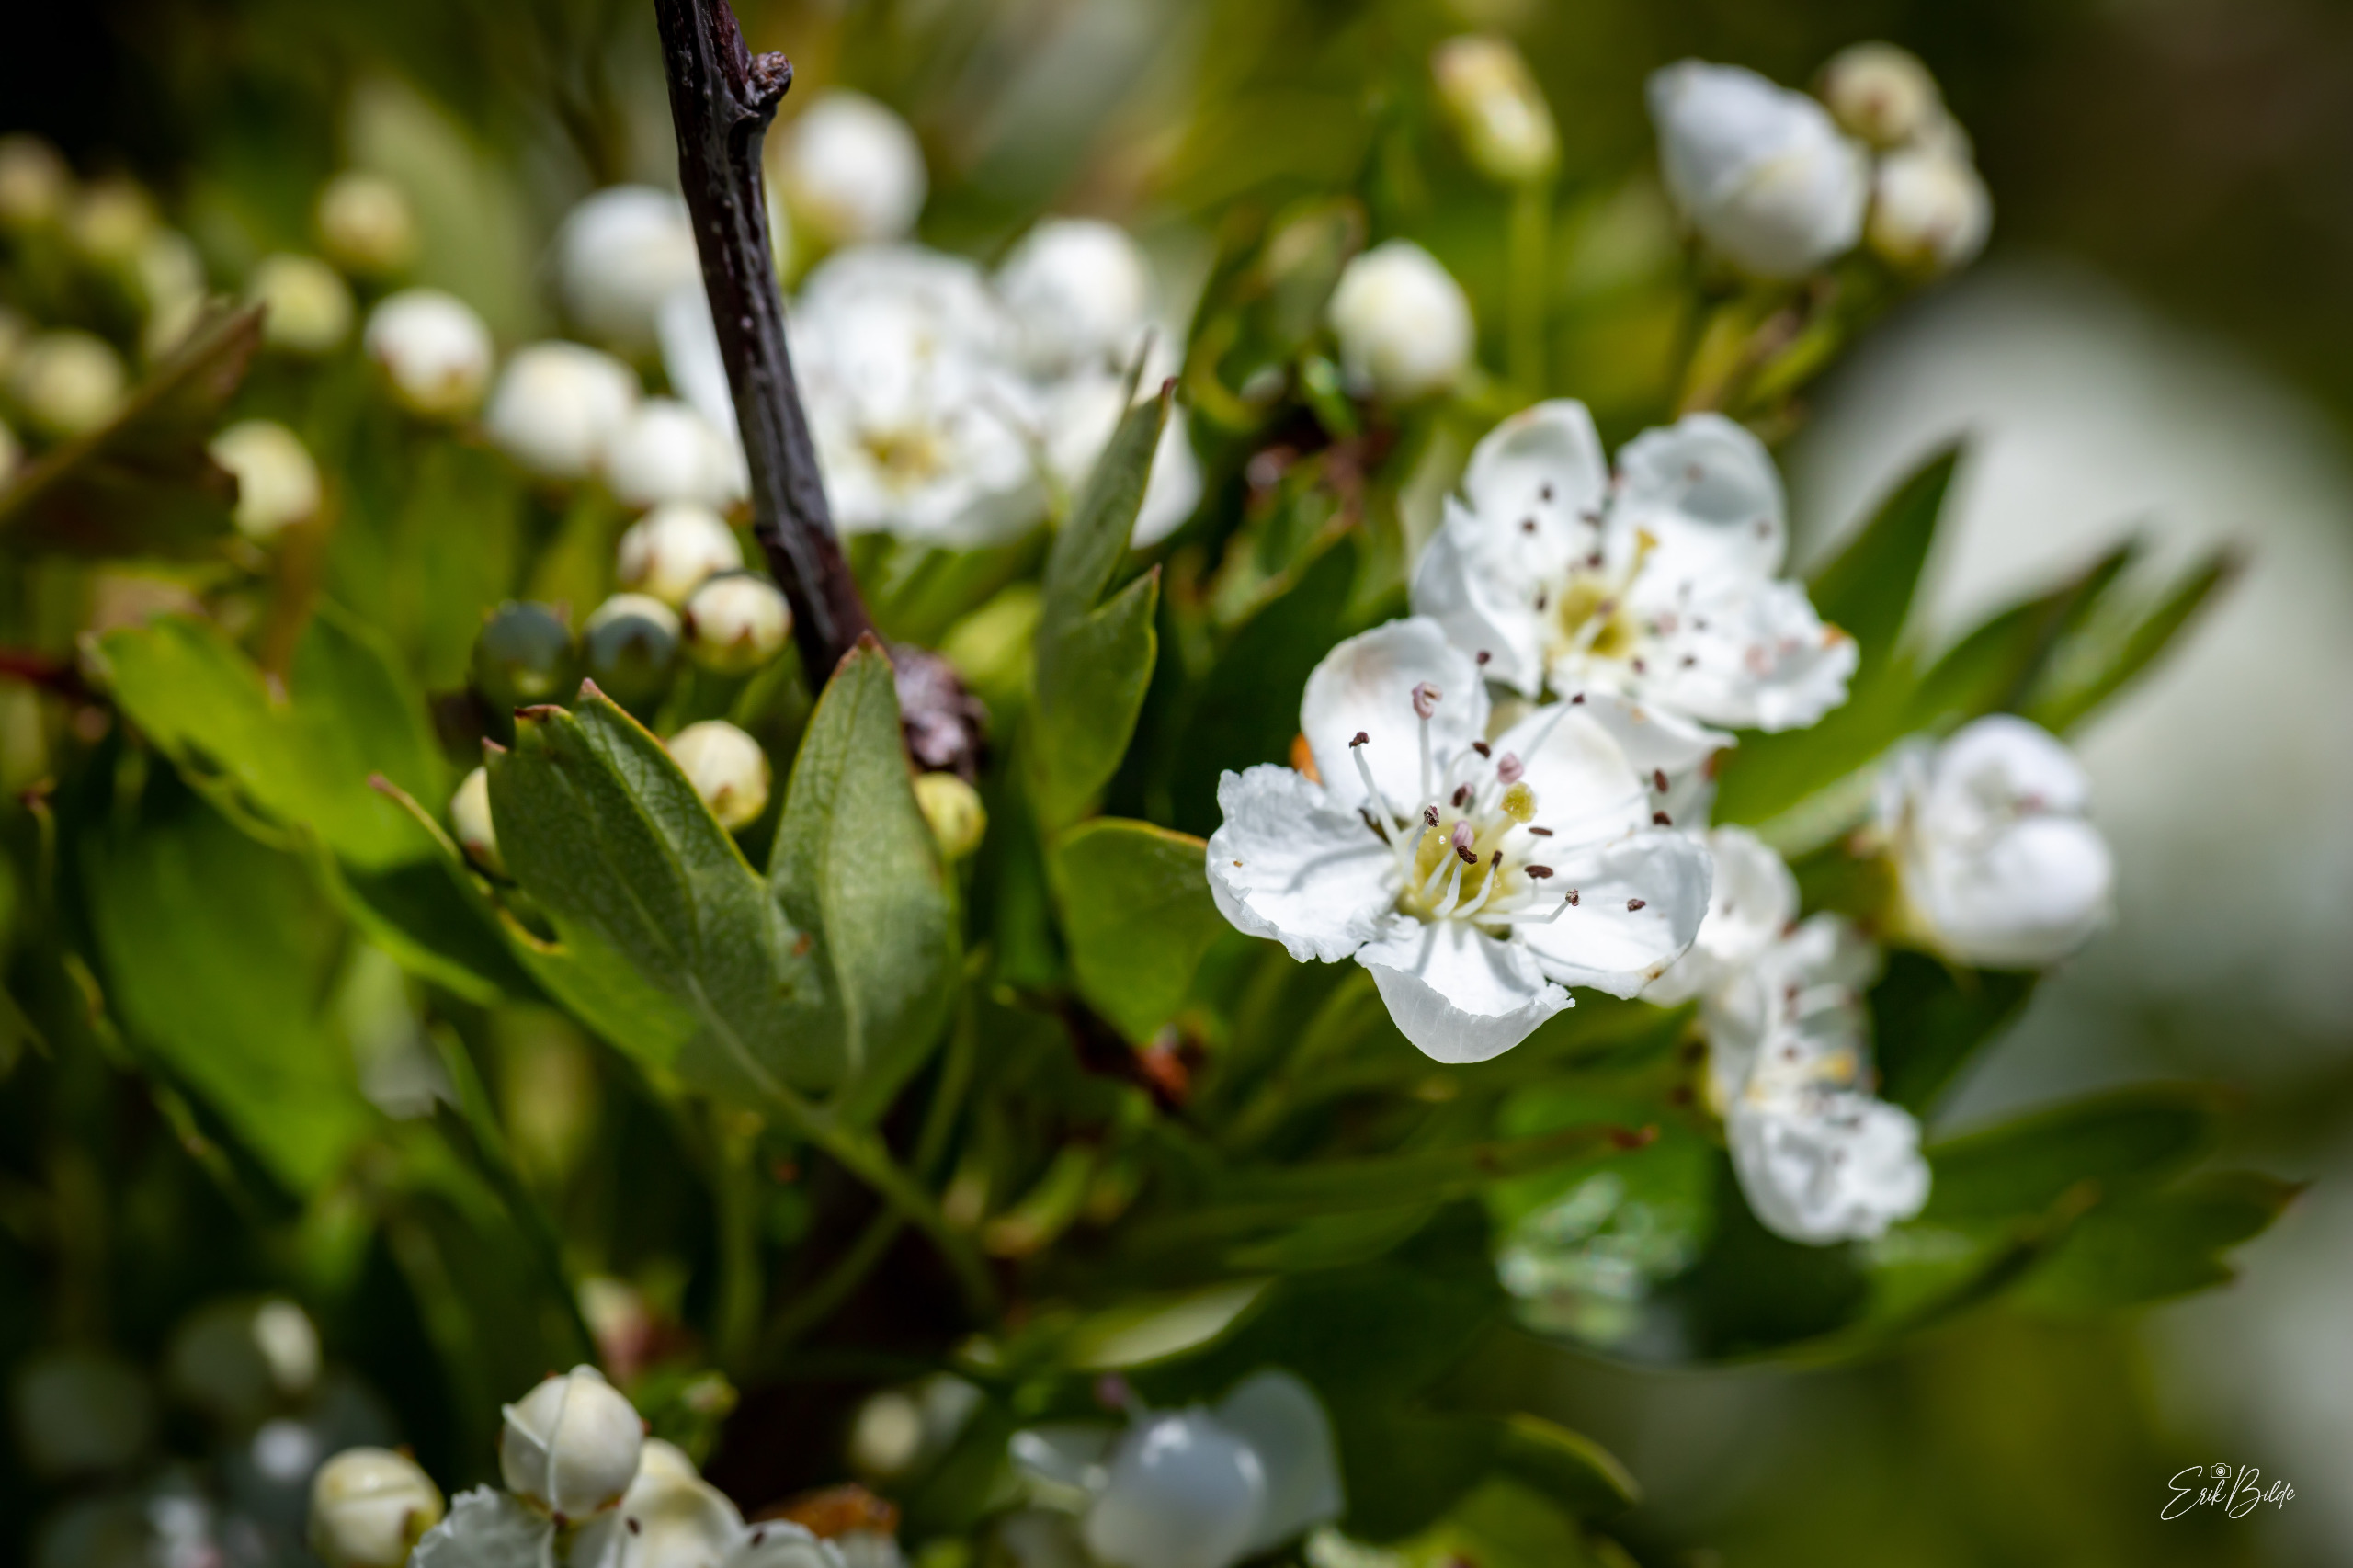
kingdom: Plantae
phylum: Tracheophyta
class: Magnoliopsida
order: Rosales
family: Rosaceae
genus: Crataegus
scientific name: Crataegus monogyna
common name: Engriflet hvidtjørn
